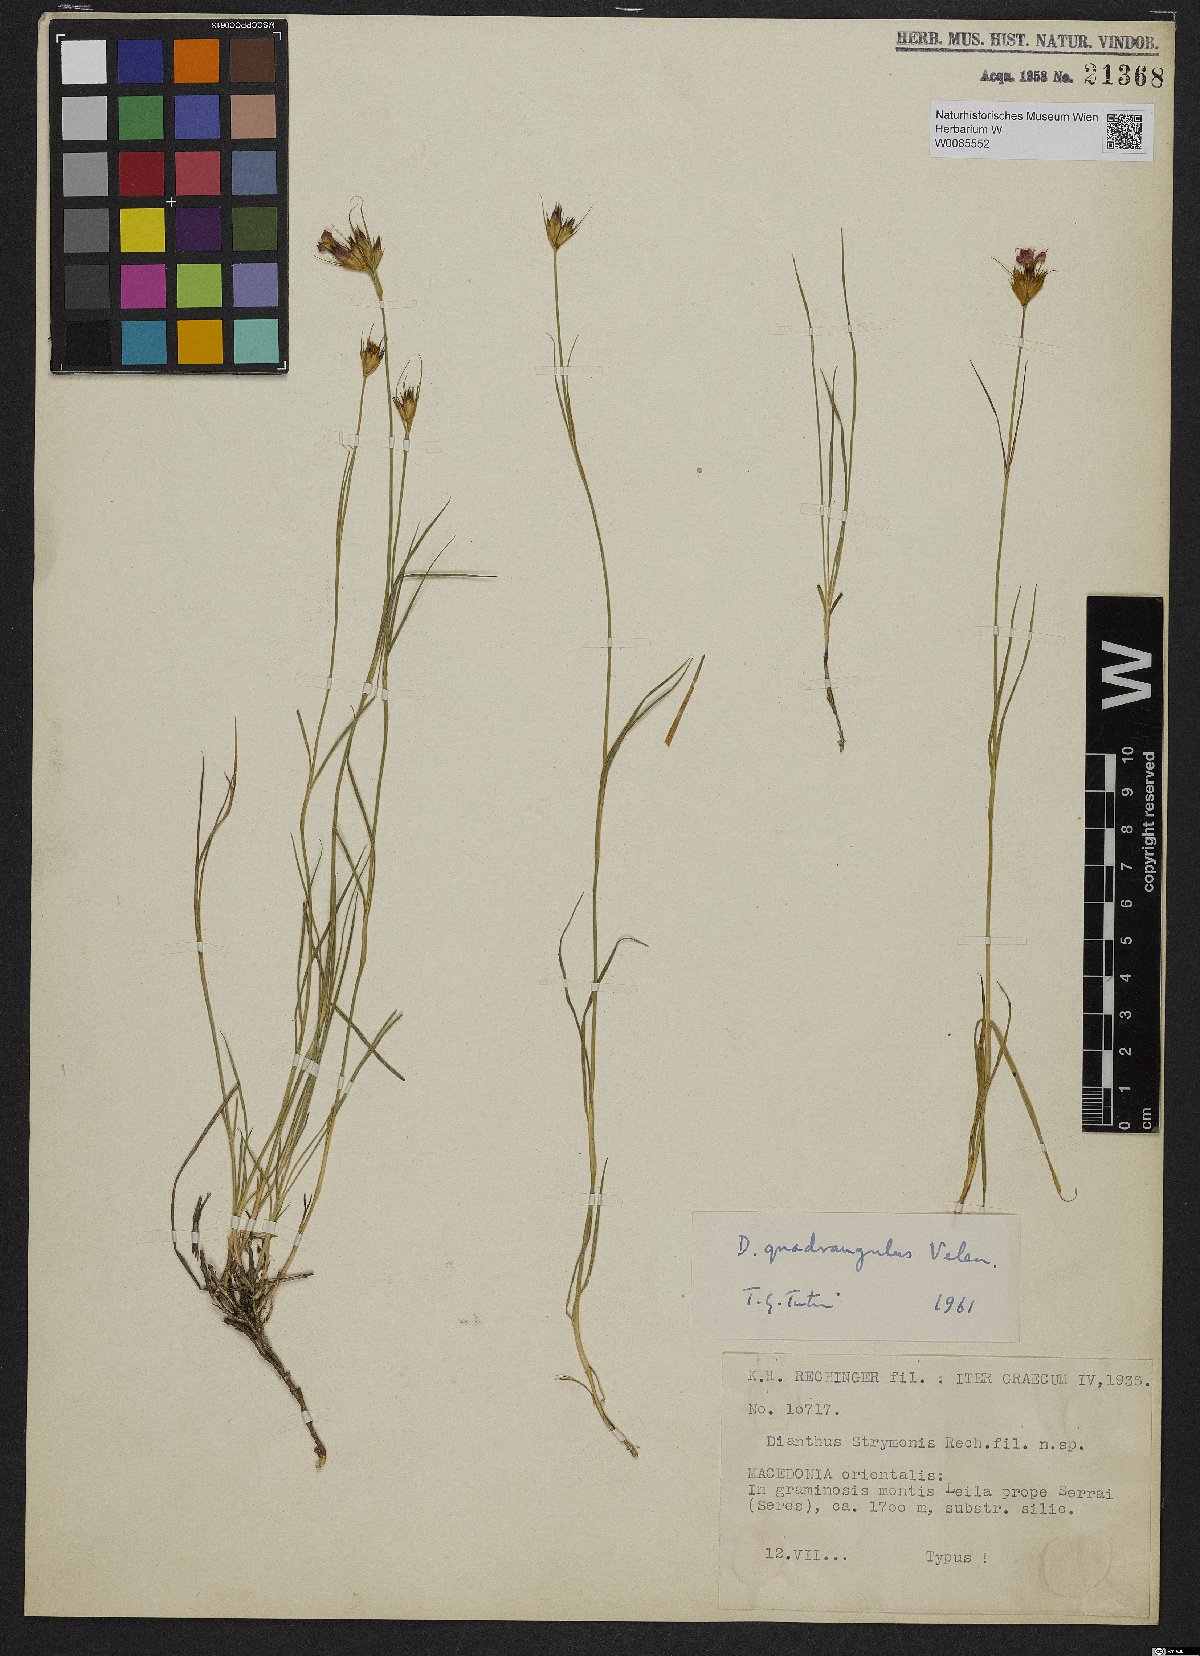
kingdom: Plantae
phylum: Tracheophyta
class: Magnoliopsida
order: Caryophyllales
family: Caryophyllaceae
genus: Dianthus
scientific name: Dianthus strymonis
